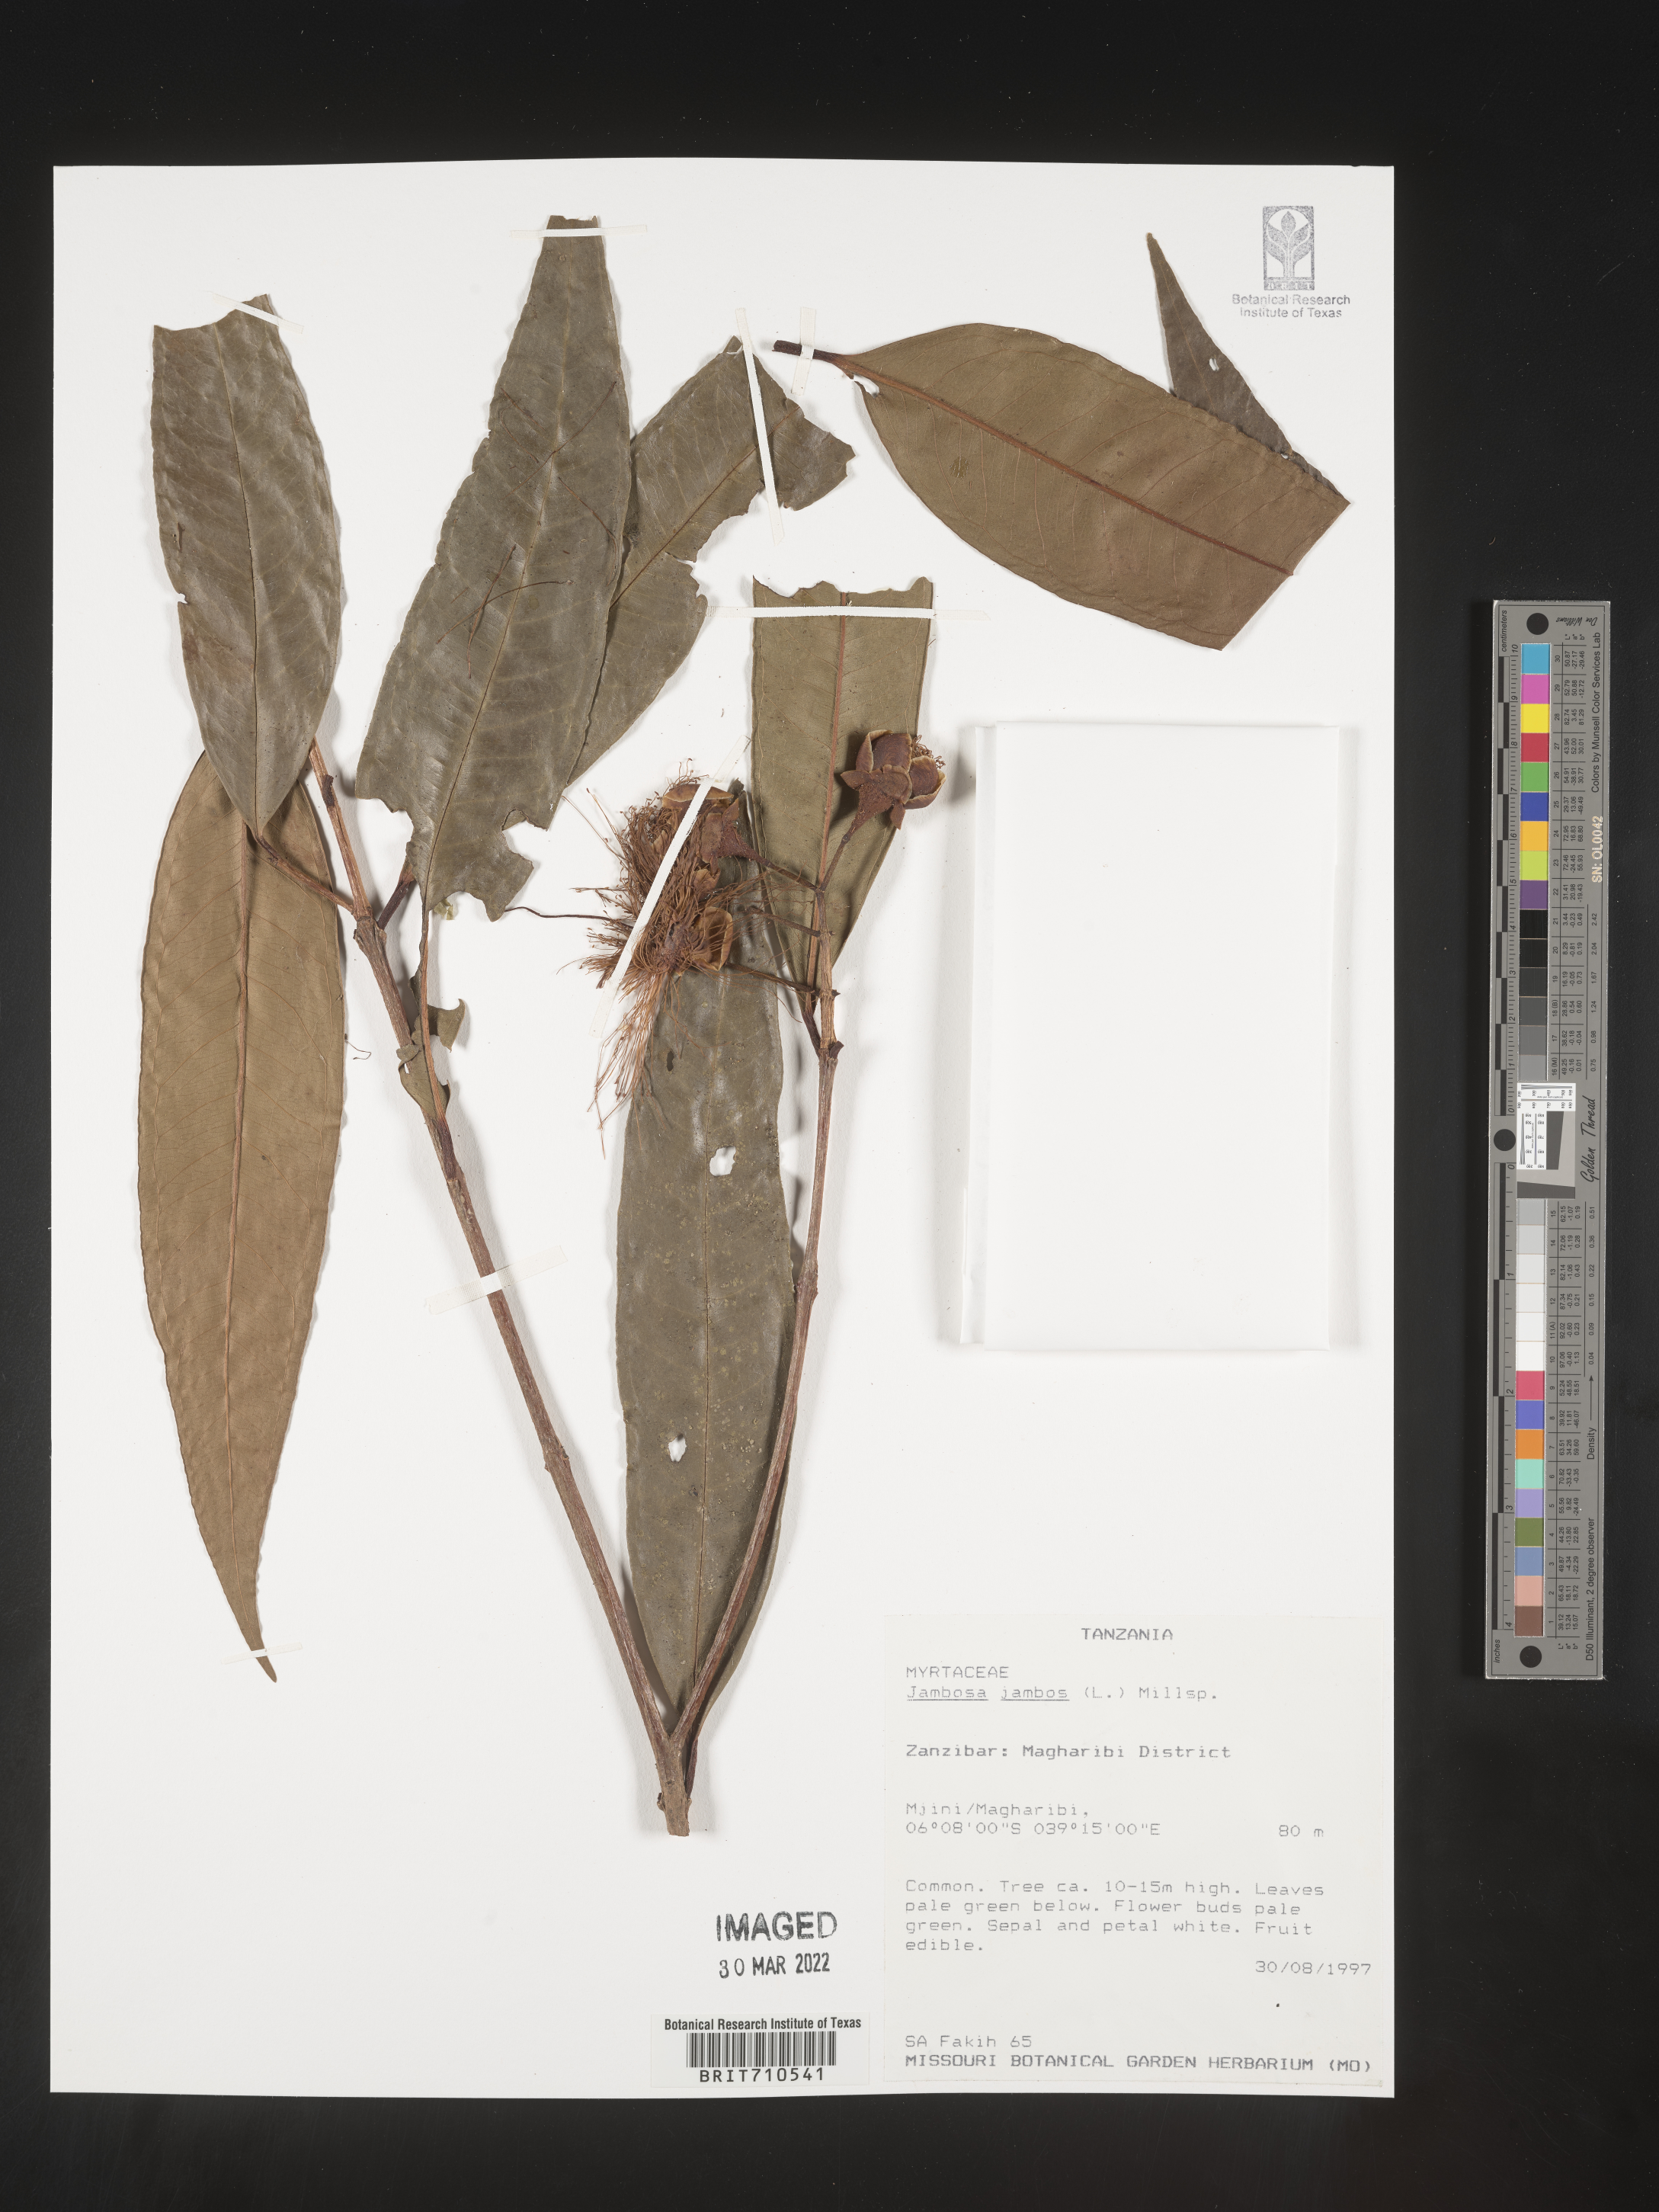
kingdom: Plantae
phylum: Tracheophyta
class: Magnoliopsida
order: Myrtales
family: Myrtaceae
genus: Syzygium
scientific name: Syzygium
